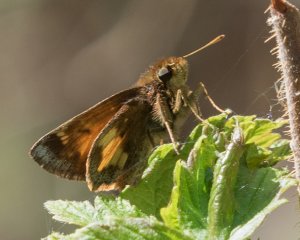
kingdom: Animalia
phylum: Arthropoda
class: Insecta
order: Lepidoptera
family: Hesperiidae
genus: Lon
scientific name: Lon hobomok
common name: Hobomok Skipper
